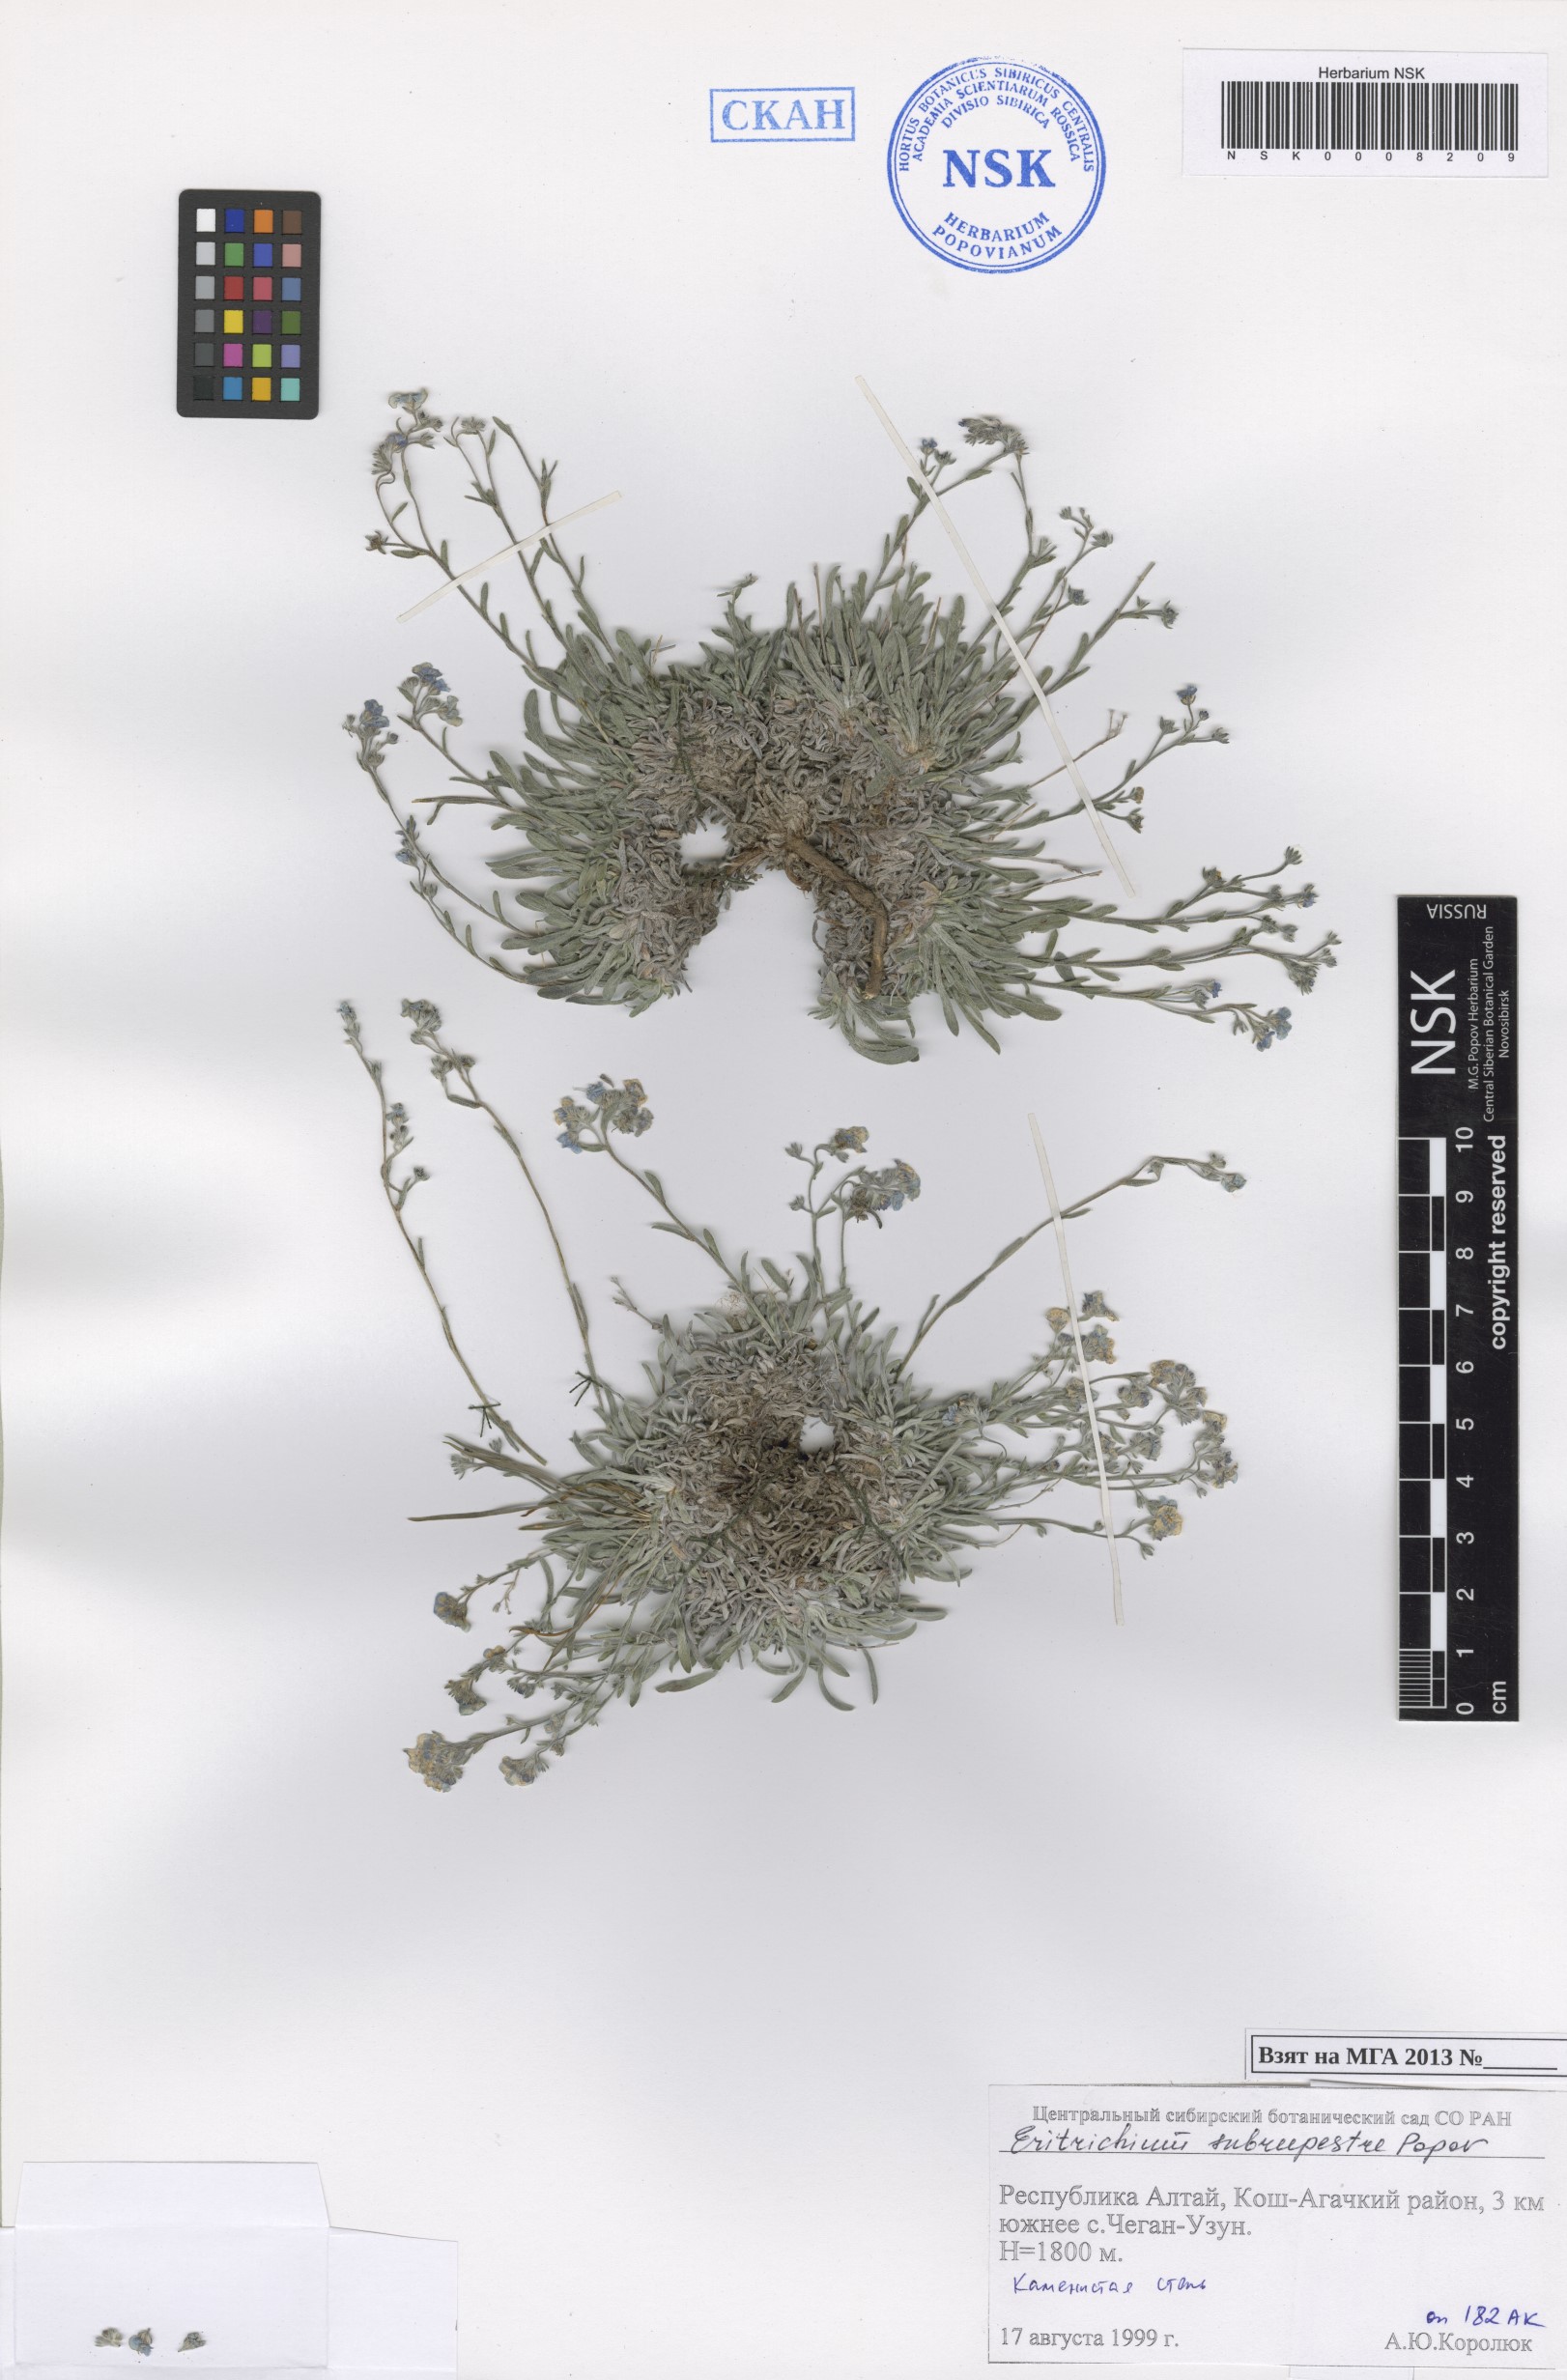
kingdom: Plantae
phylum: Tracheophyta
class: Magnoliopsida
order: Boraginales
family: Boraginaceae
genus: Eritrichium
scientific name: Eritrichium pauciflorum
